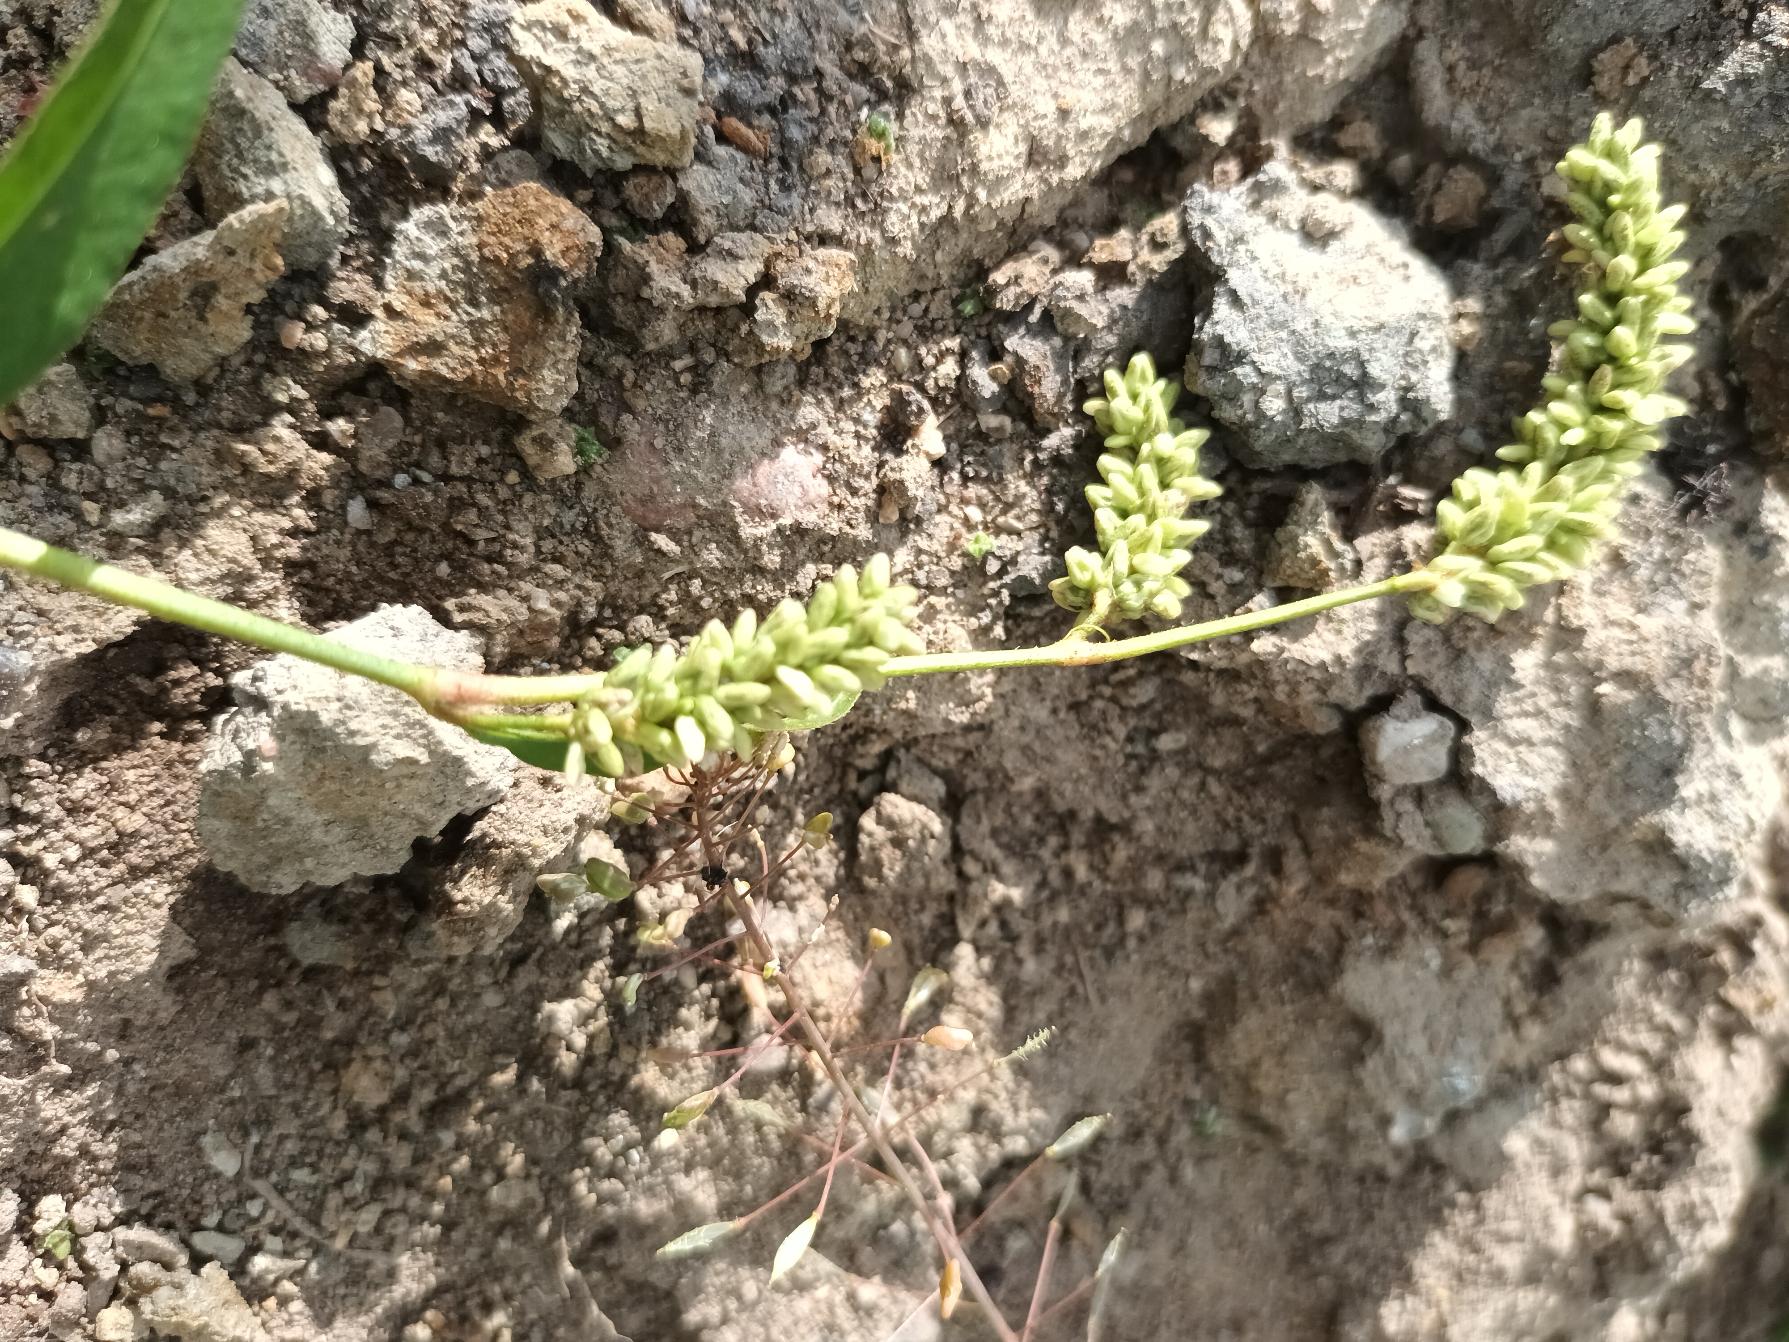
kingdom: Plantae
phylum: Tracheophyta
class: Magnoliopsida
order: Caryophyllales
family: Polygonaceae
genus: Persicaria
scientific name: Persicaria lapathifolia
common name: Bleg pileurt
